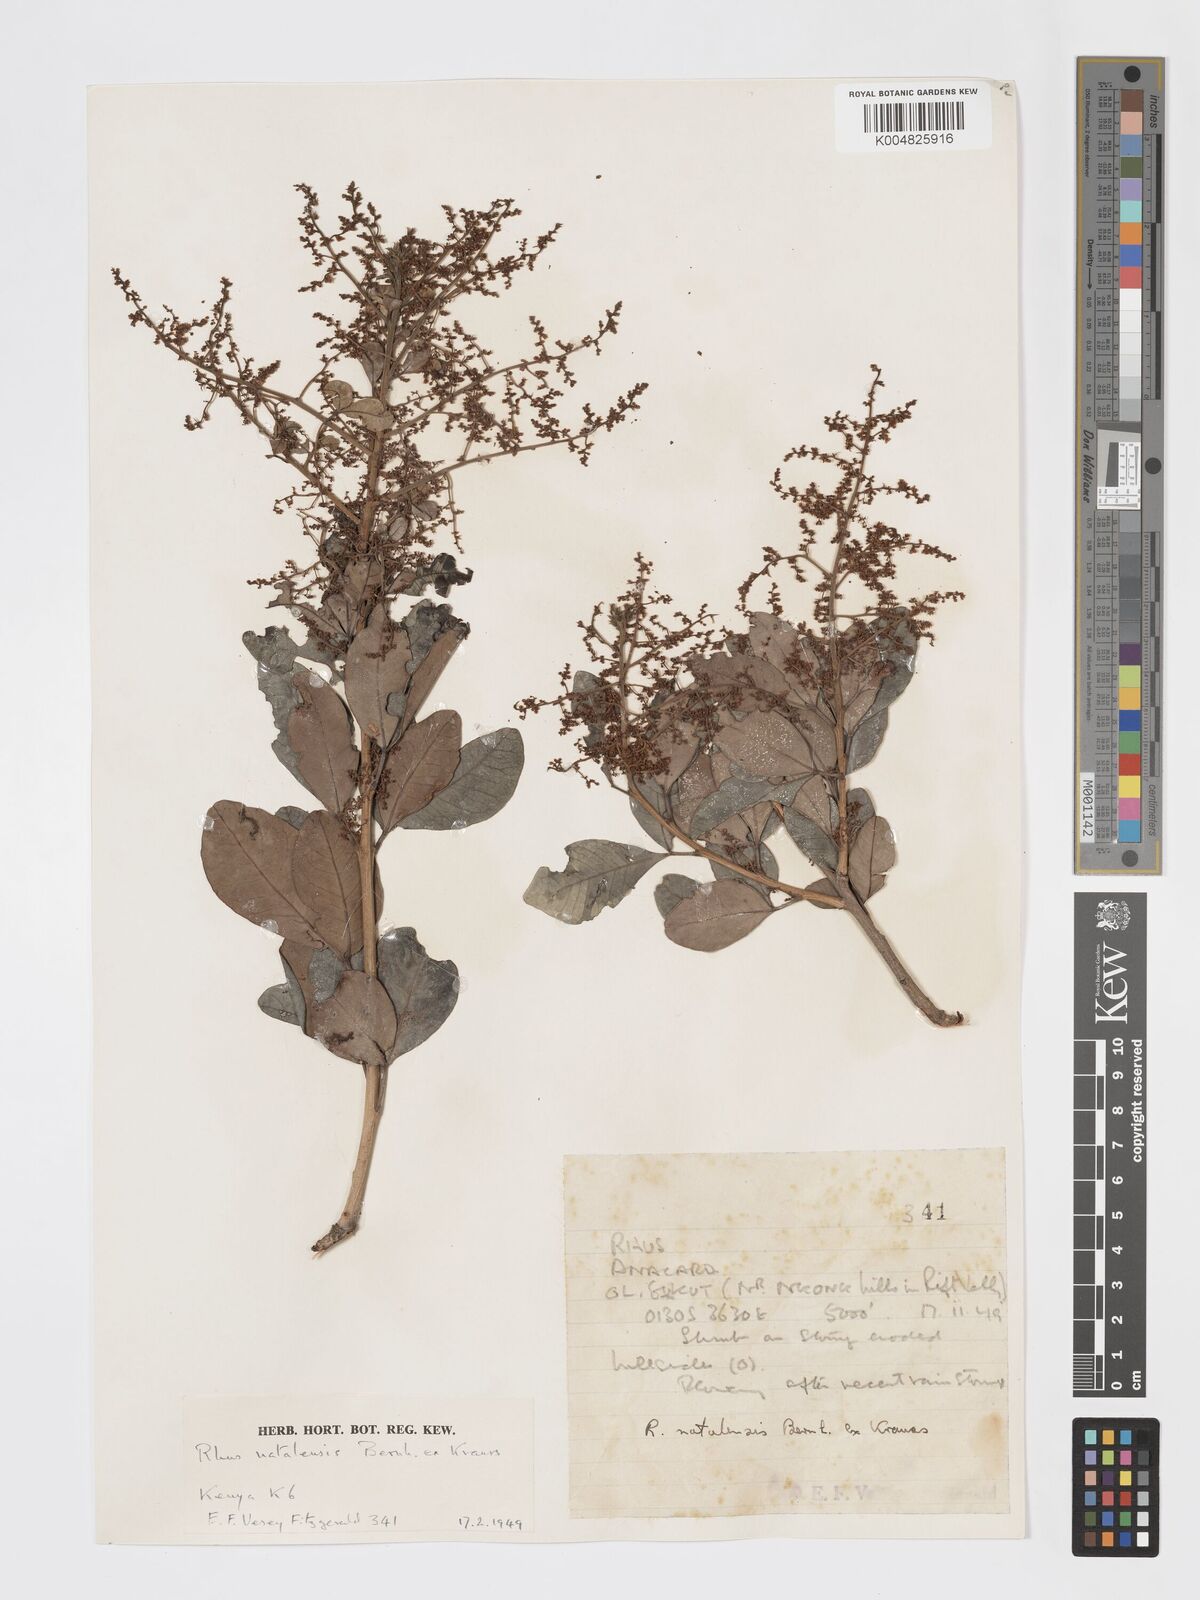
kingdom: Plantae
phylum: Tracheophyta
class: Magnoliopsida
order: Sapindales
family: Anacardiaceae
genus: Searsia
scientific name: Searsia natalensis
